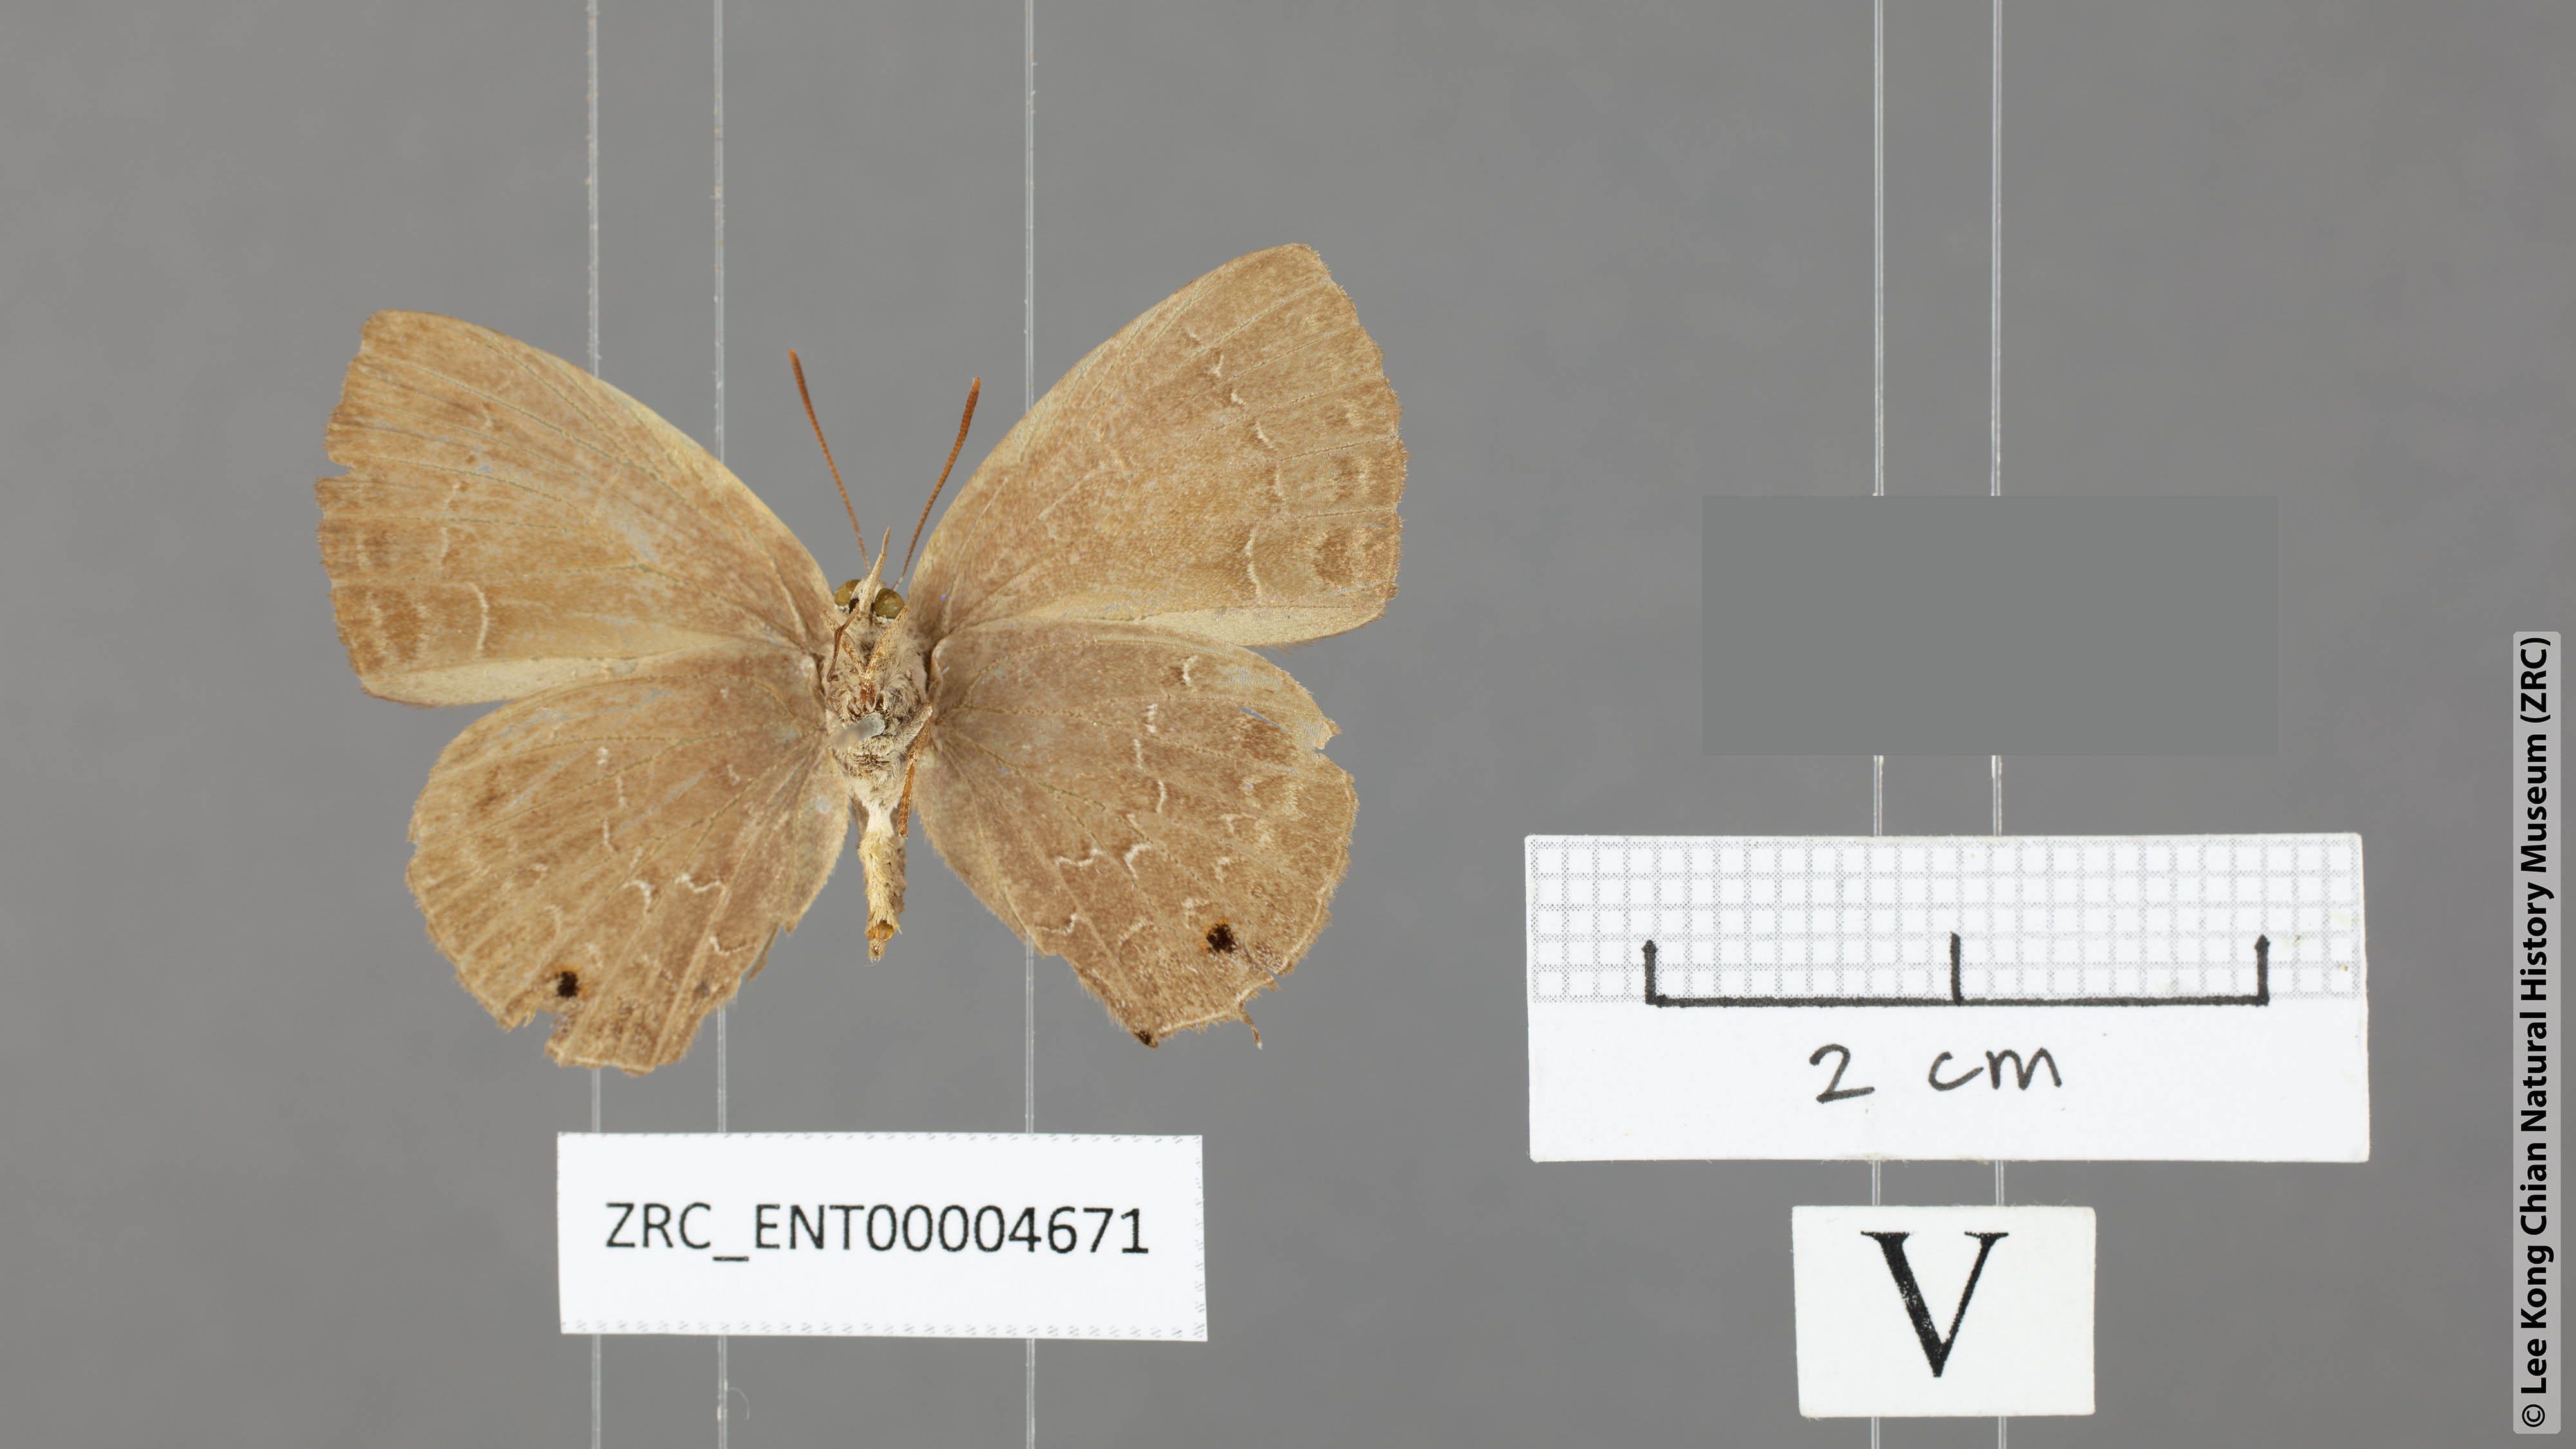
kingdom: Animalia
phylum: Arthropoda
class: Insecta
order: Lepidoptera
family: Lycaenidae
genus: Zinaspa
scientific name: Zinaspa todara
